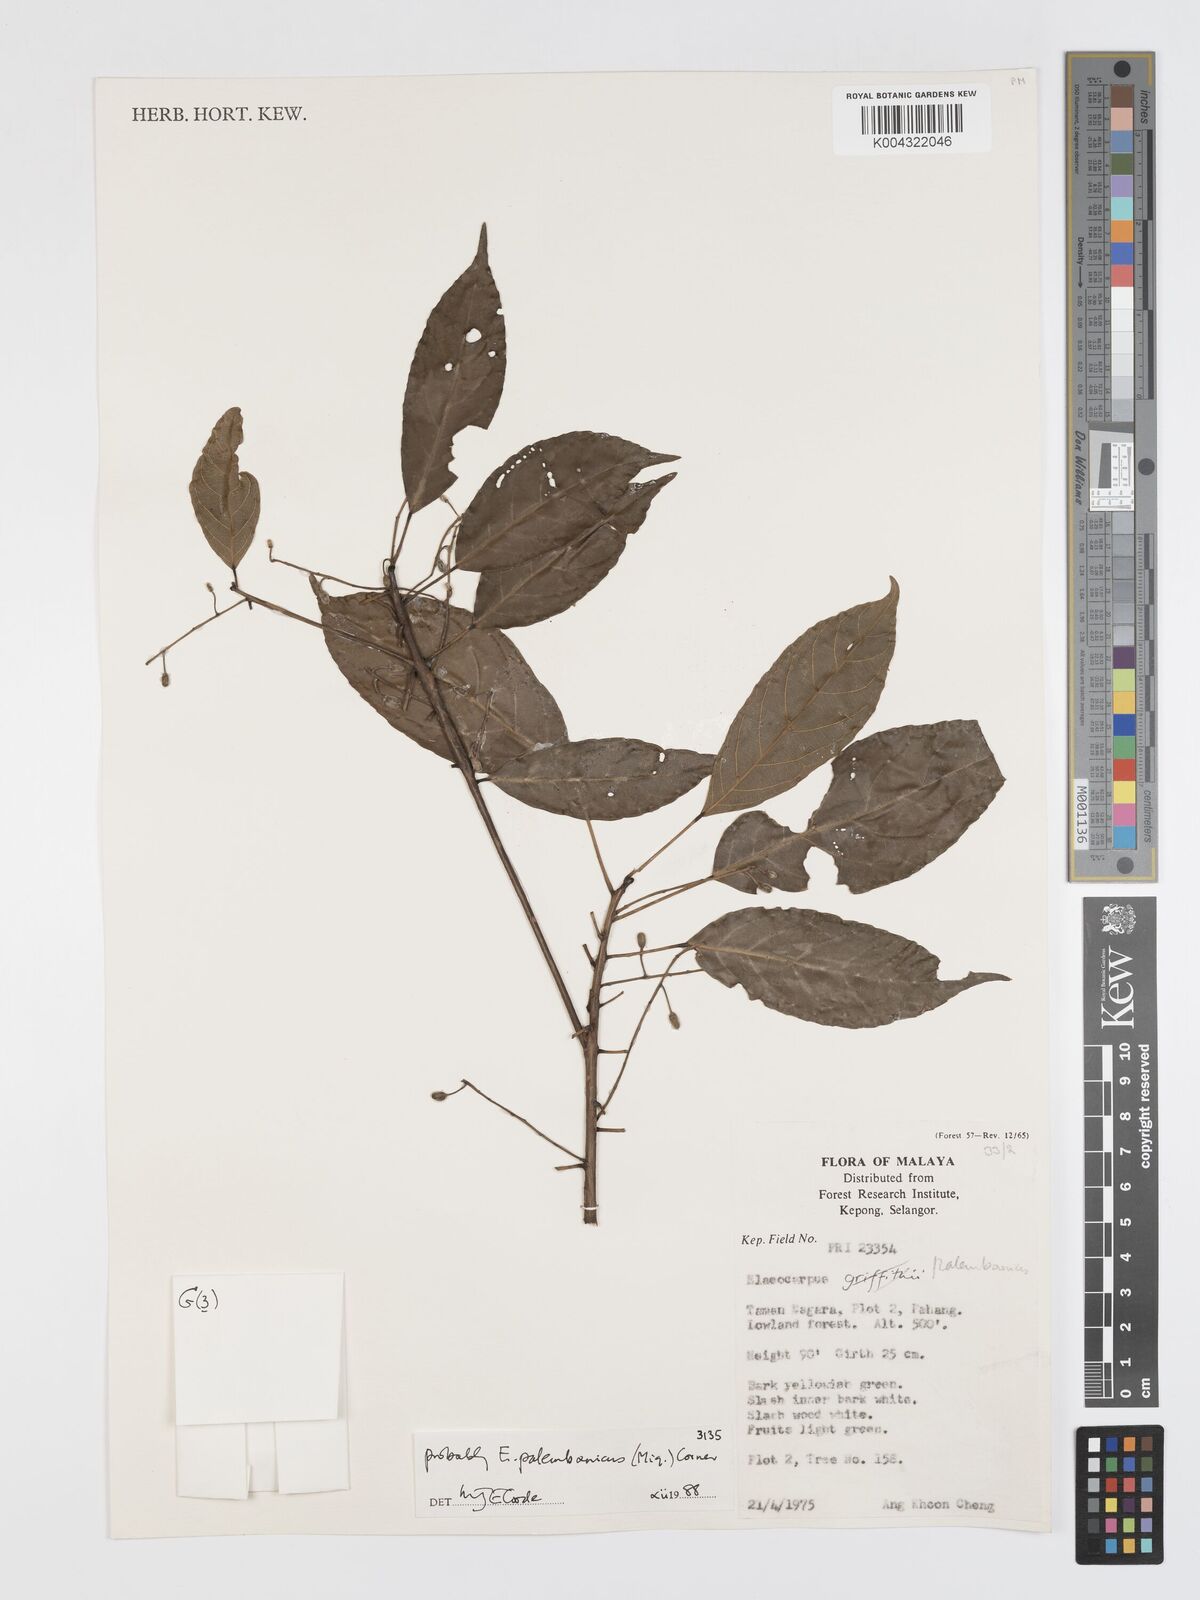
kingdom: Plantae
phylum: Tracheophyta
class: Magnoliopsida
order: Oxalidales
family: Elaeocarpaceae
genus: Elaeocarpus
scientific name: Elaeocarpus palembanicus
